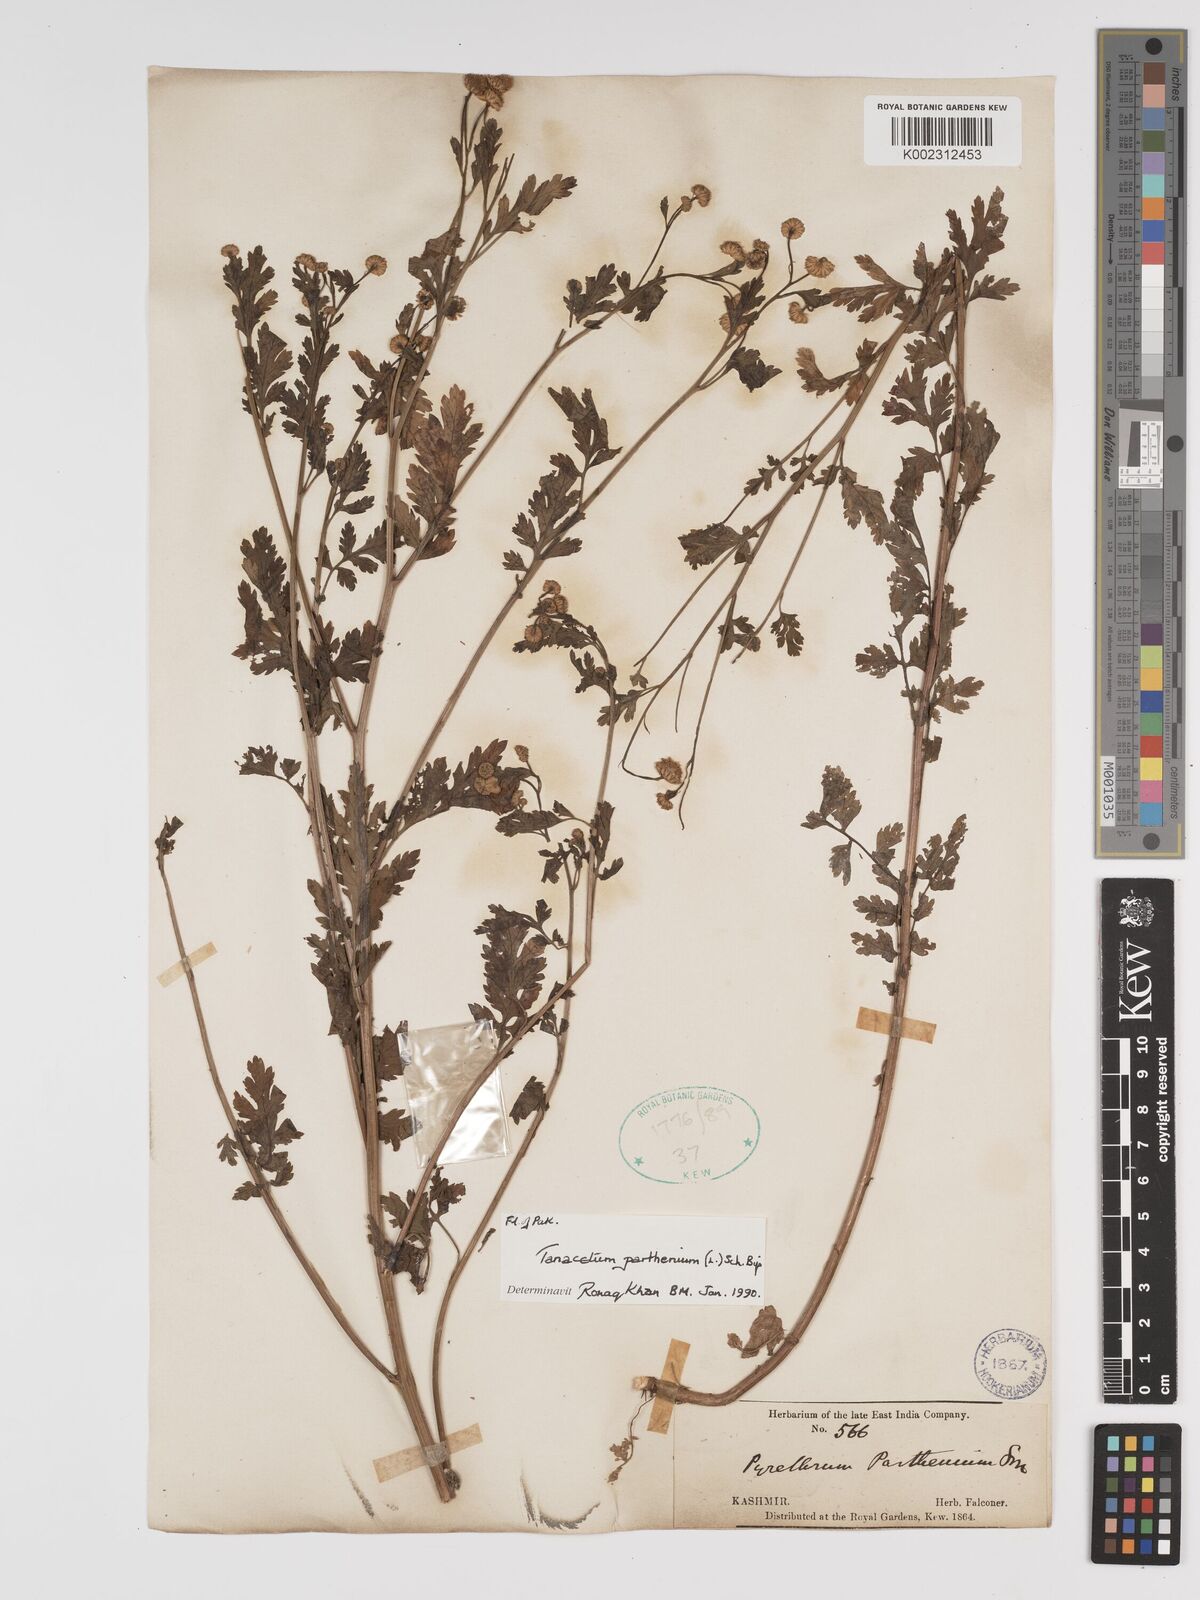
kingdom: Plantae
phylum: Tracheophyta
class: Magnoliopsida
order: Asterales
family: Asteraceae
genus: Tanacetum
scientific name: Tanacetum parthenium
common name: Feverfew
